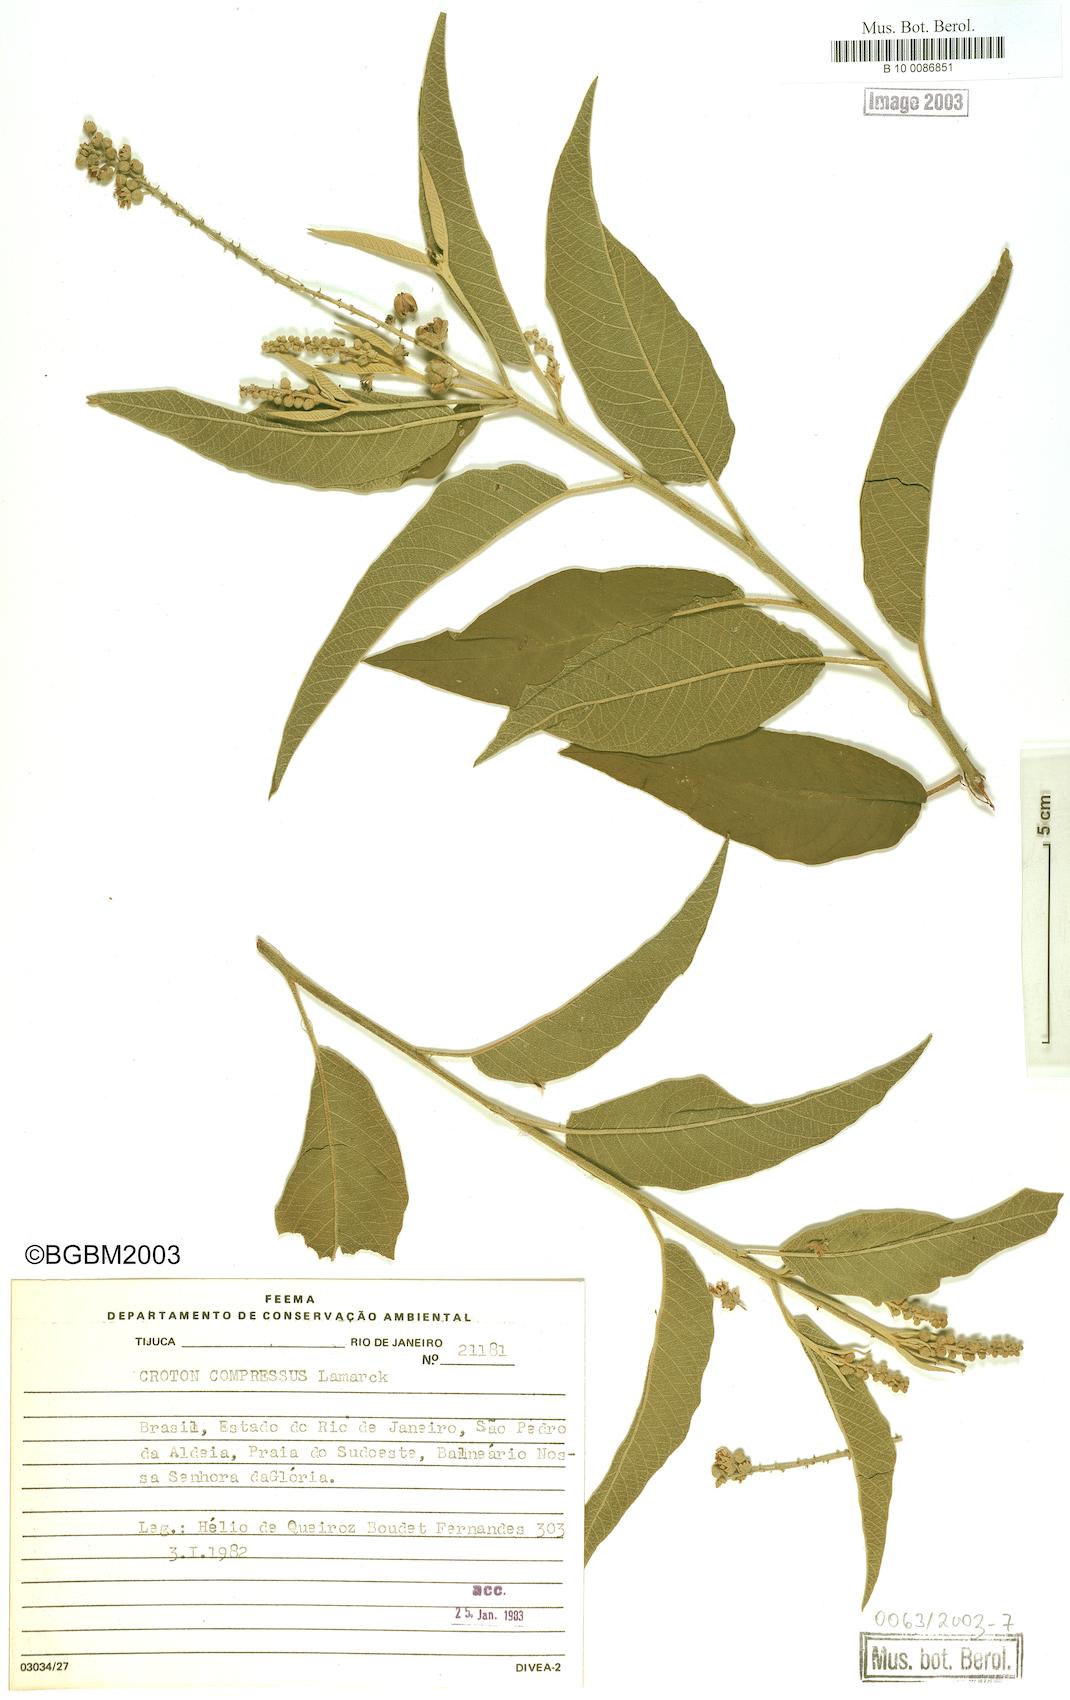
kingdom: Plantae
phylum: Tracheophyta
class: Magnoliopsida
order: Malpighiales
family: Euphorbiaceae
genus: Croton
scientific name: Croton compressus
